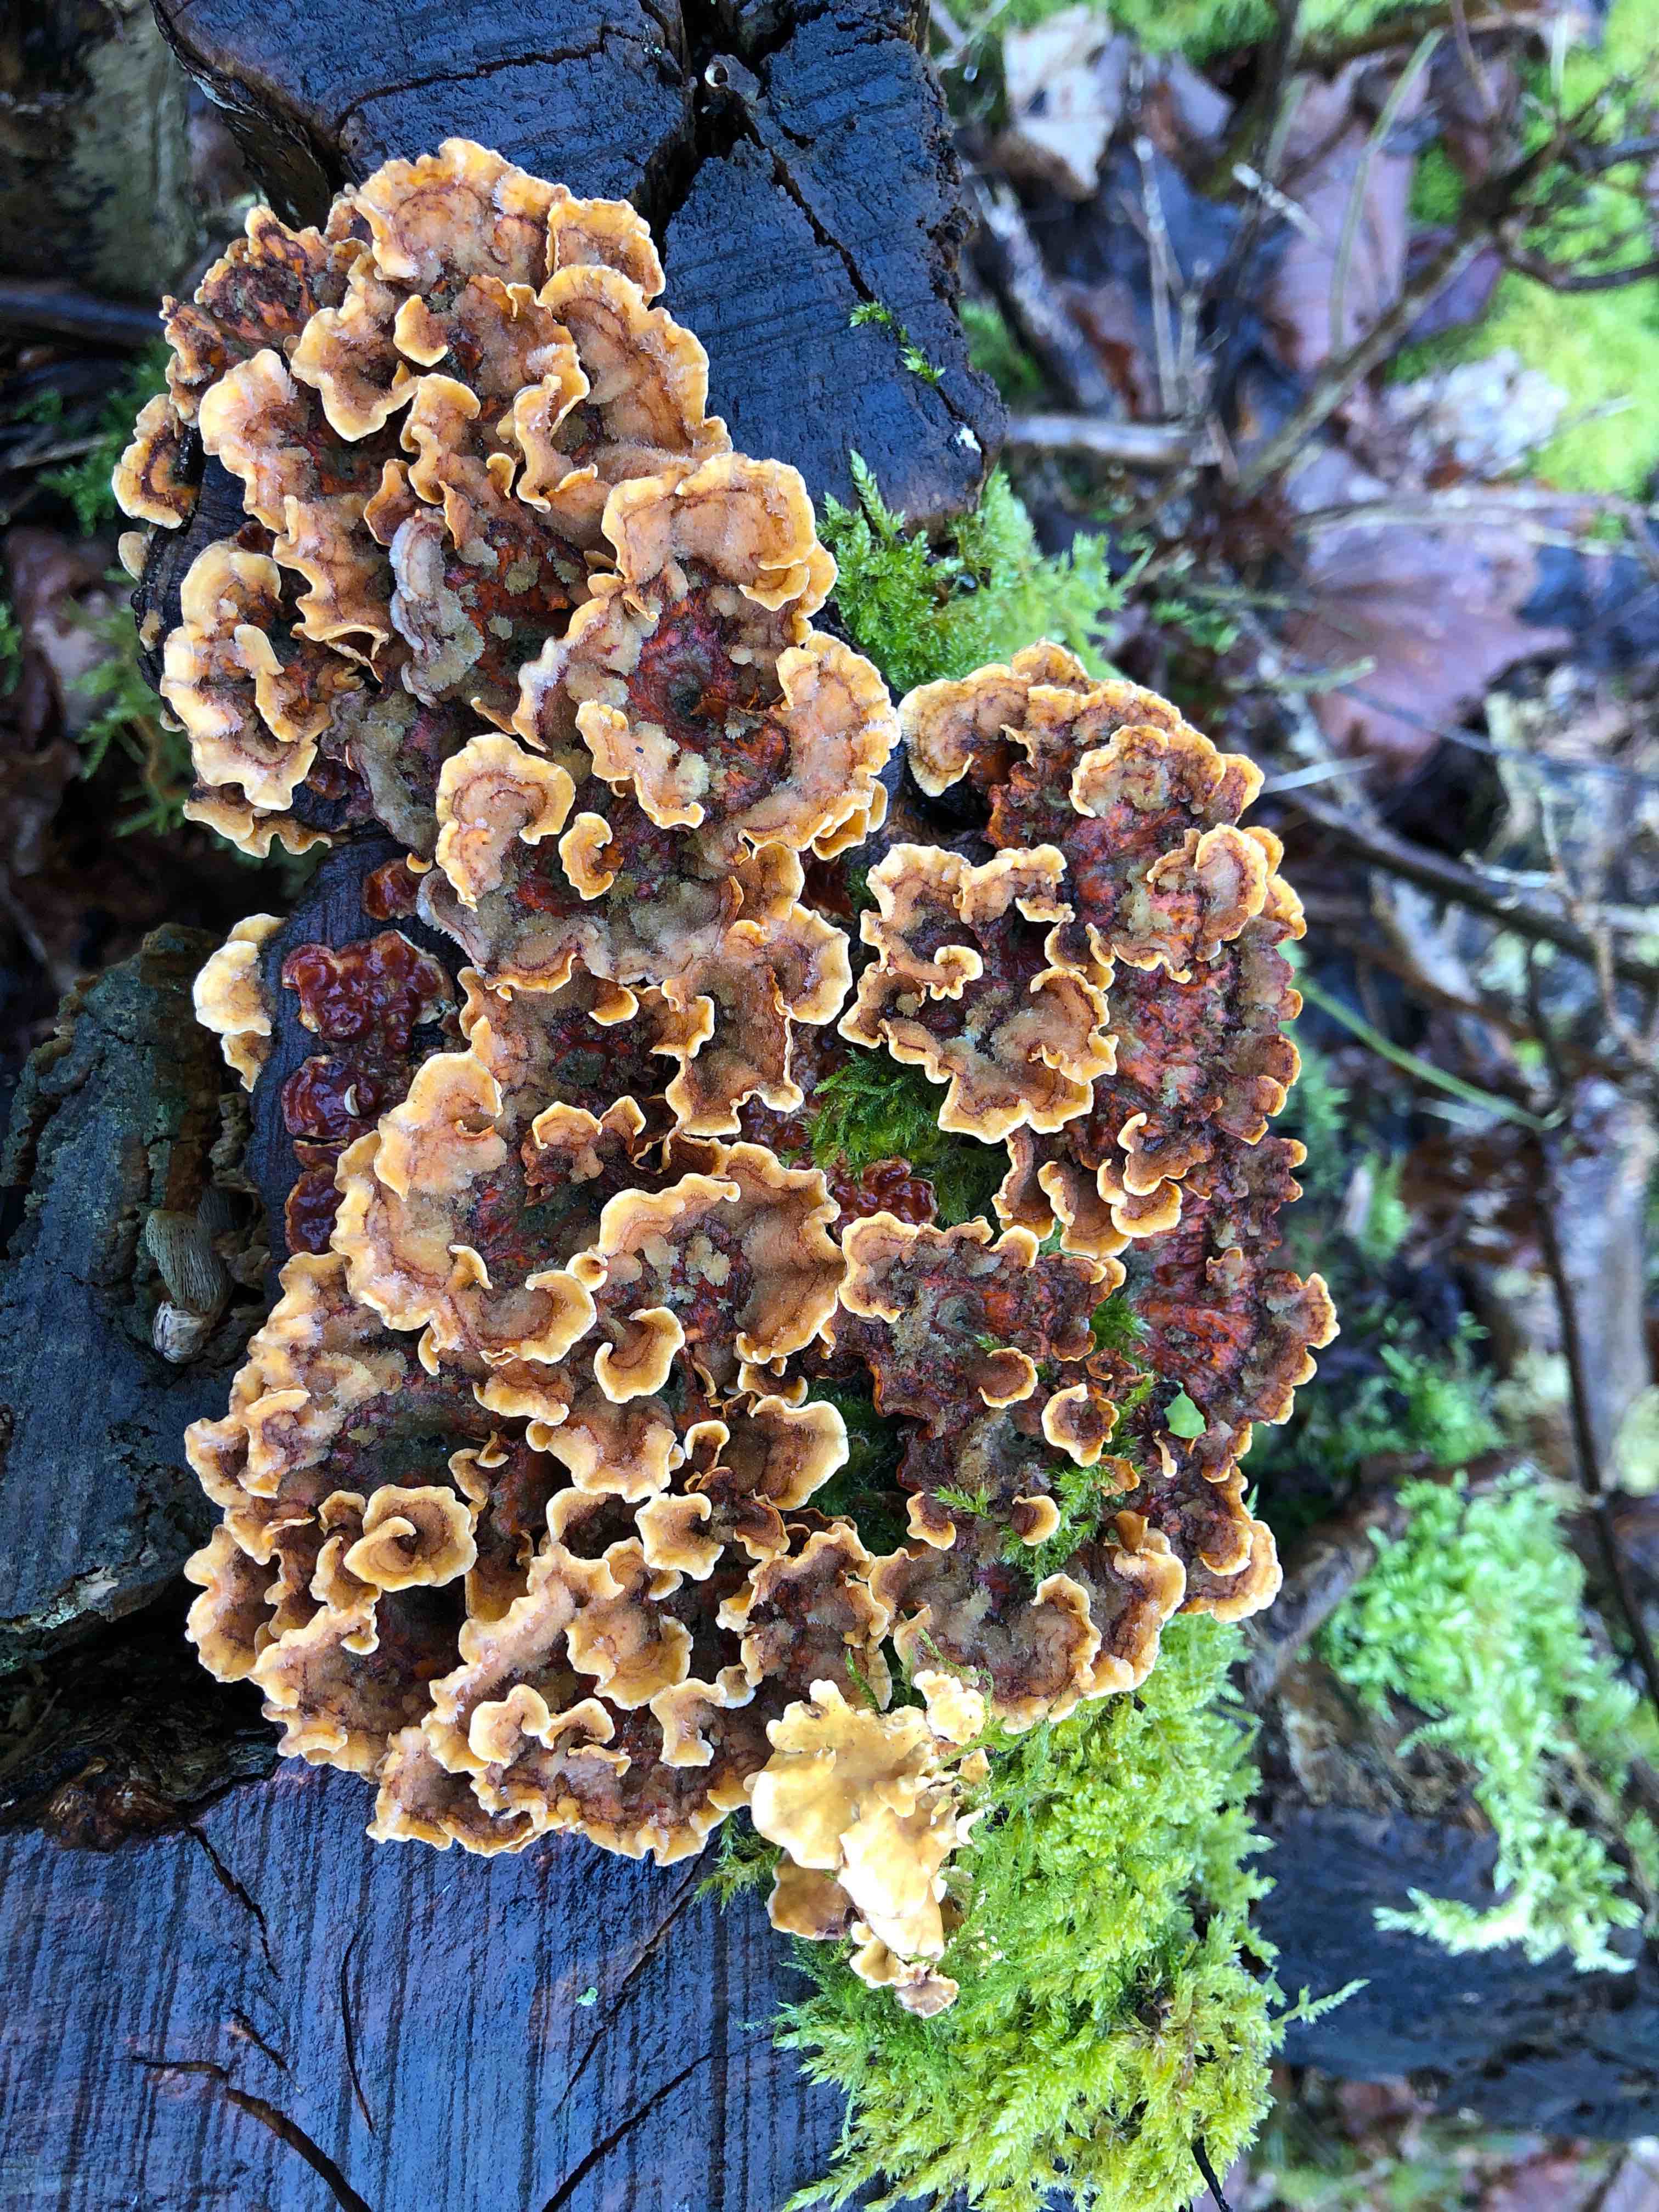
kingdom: Fungi
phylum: Basidiomycota
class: Agaricomycetes
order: Russulales
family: Stereaceae
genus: Stereum
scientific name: Stereum hirsutum
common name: håret lædersvamp
